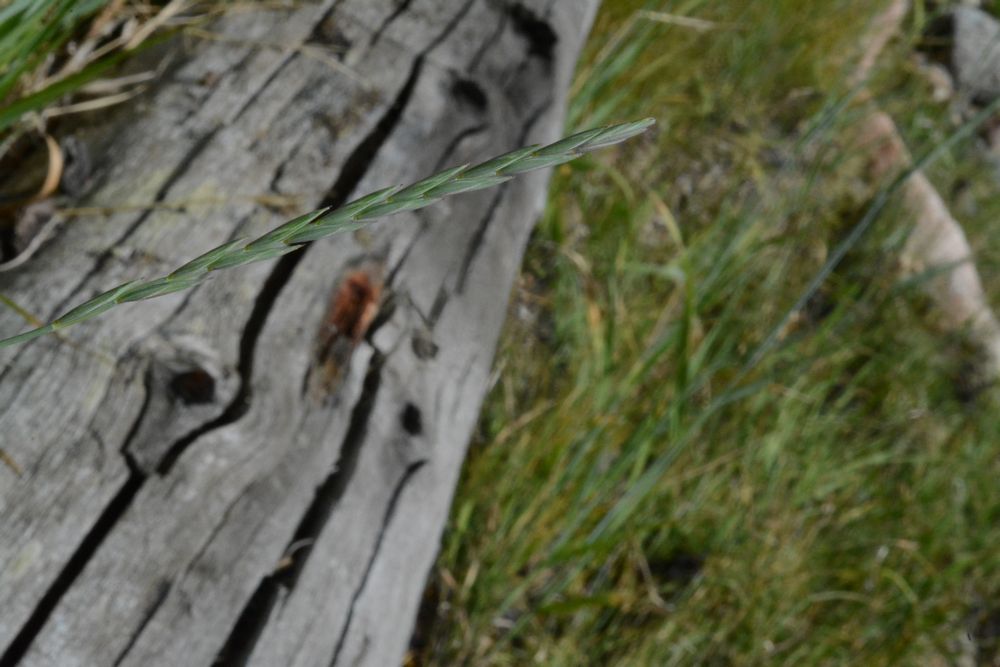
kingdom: Plantae
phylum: Tracheophyta
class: Liliopsida
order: Poales
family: Poaceae
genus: Elymus
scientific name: Elymus repens
